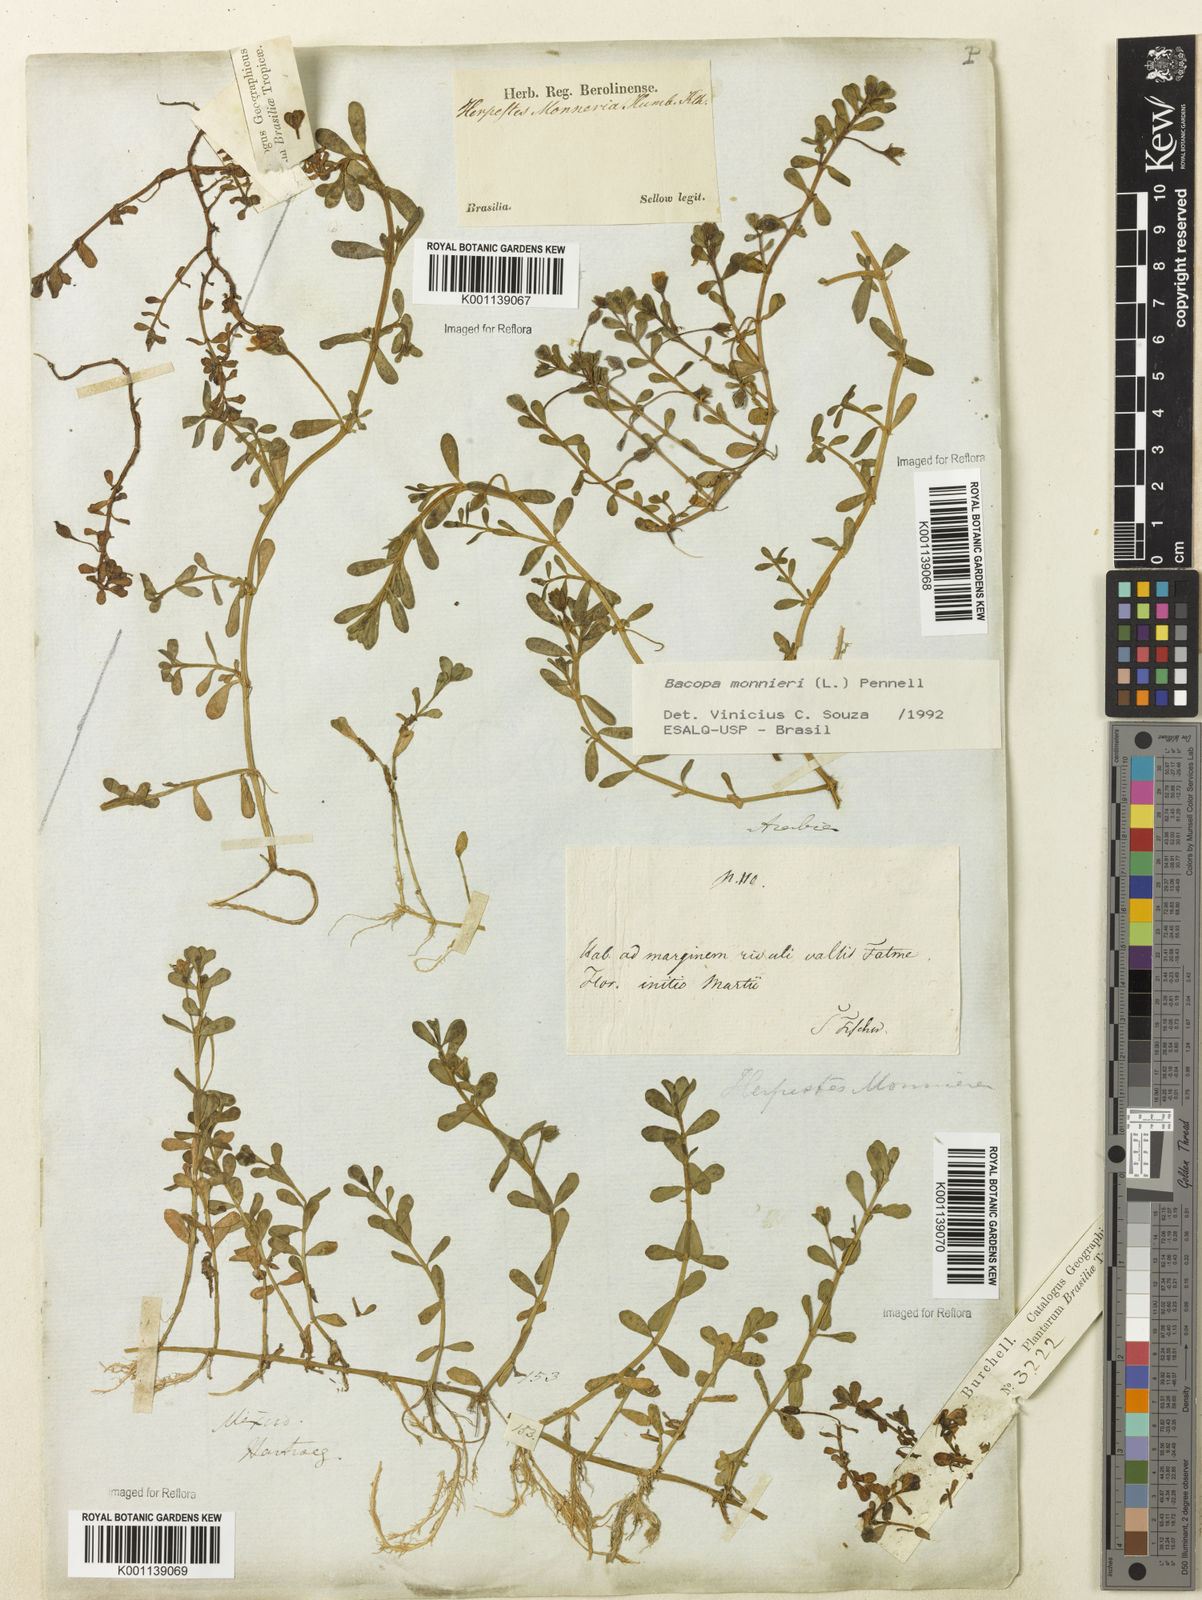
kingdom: Plantae
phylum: Tracheophyta
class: Magnoliopsida
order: Lamiales
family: Plantaginaceae
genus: Bacopa
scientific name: Bacopa
